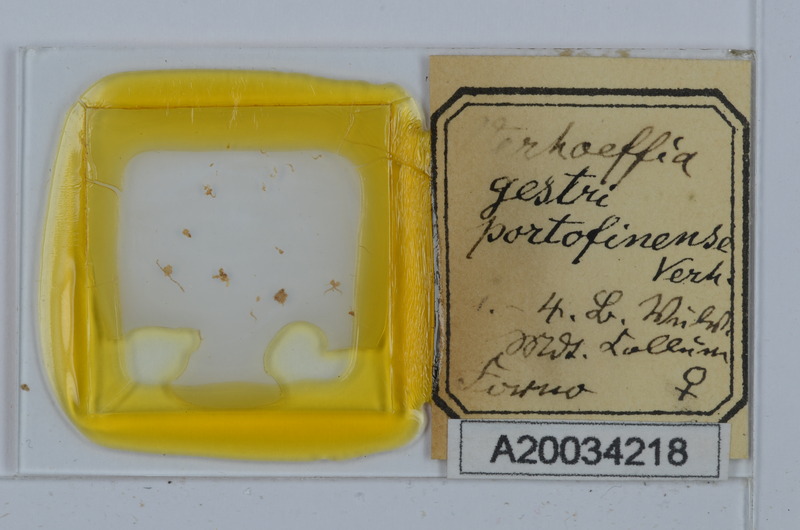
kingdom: Animalia
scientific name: Animalia
